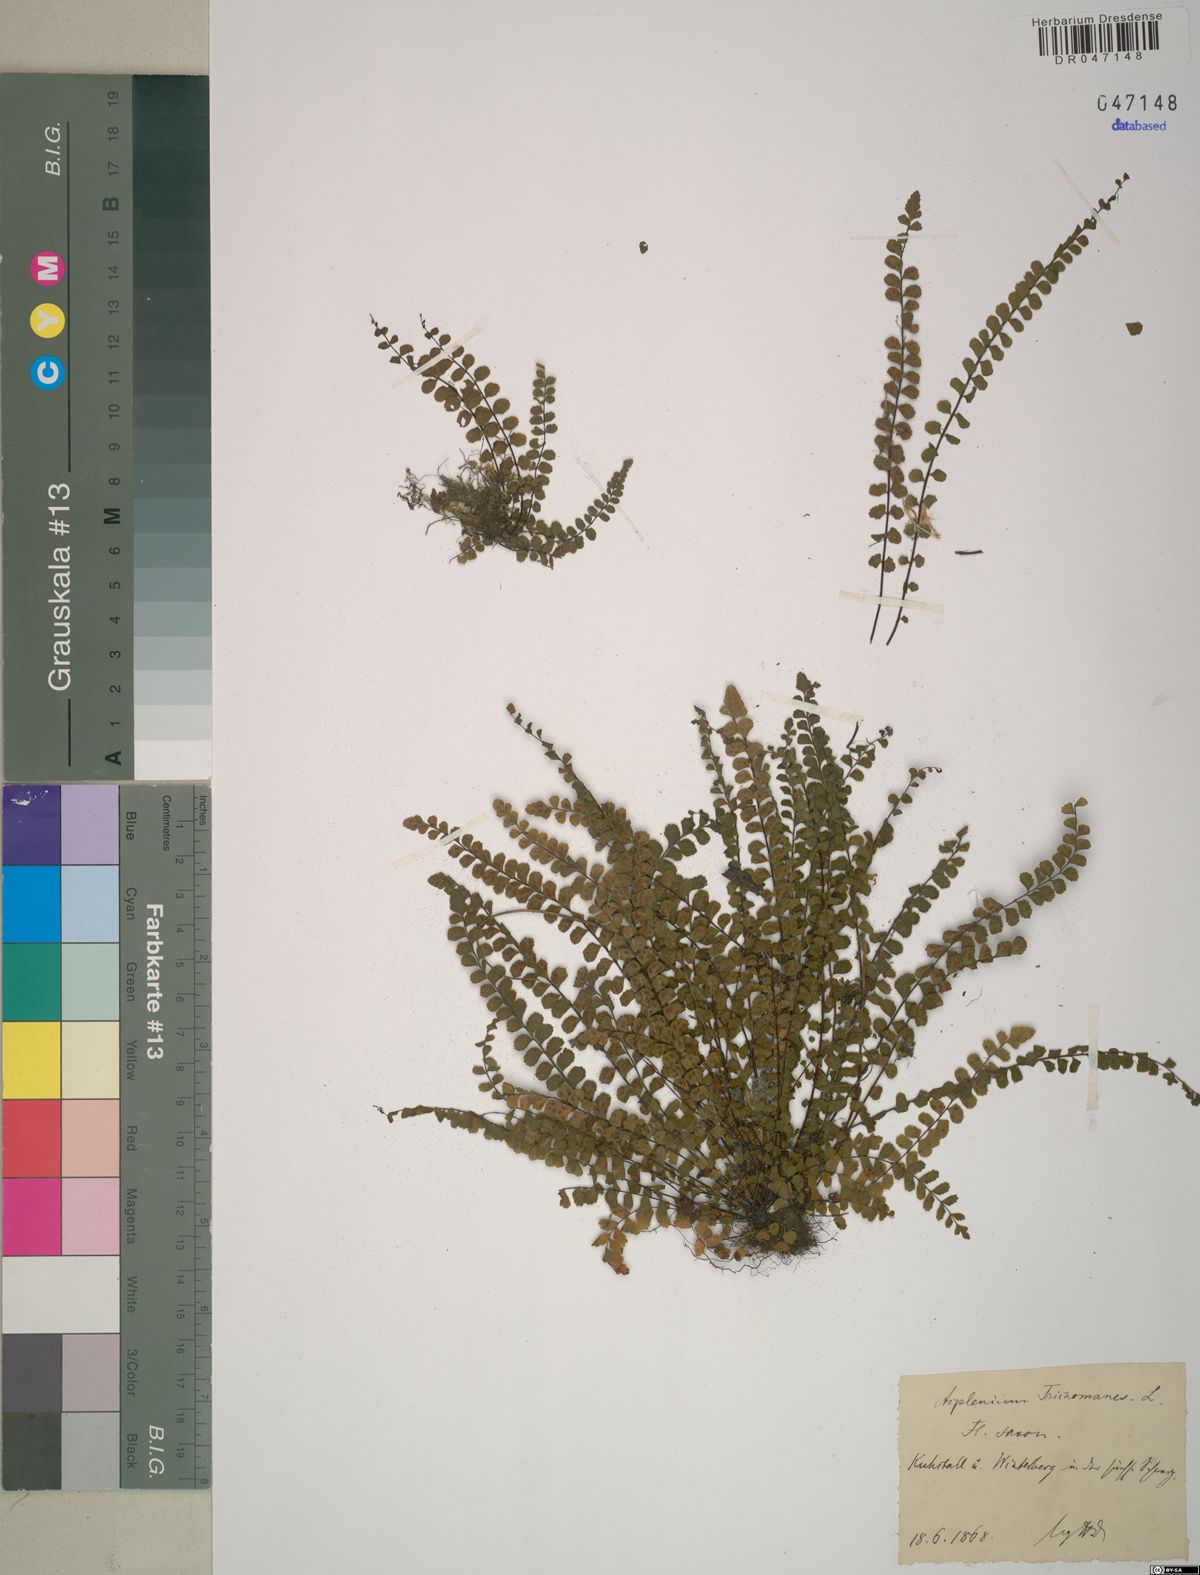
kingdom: Plantae
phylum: Tracheophyta
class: Polypodiopsida
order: Polypodiales
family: Aspleniaceae
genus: Asplenium
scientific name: Asplenium trichomanes
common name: Maidenhair spleenwort
